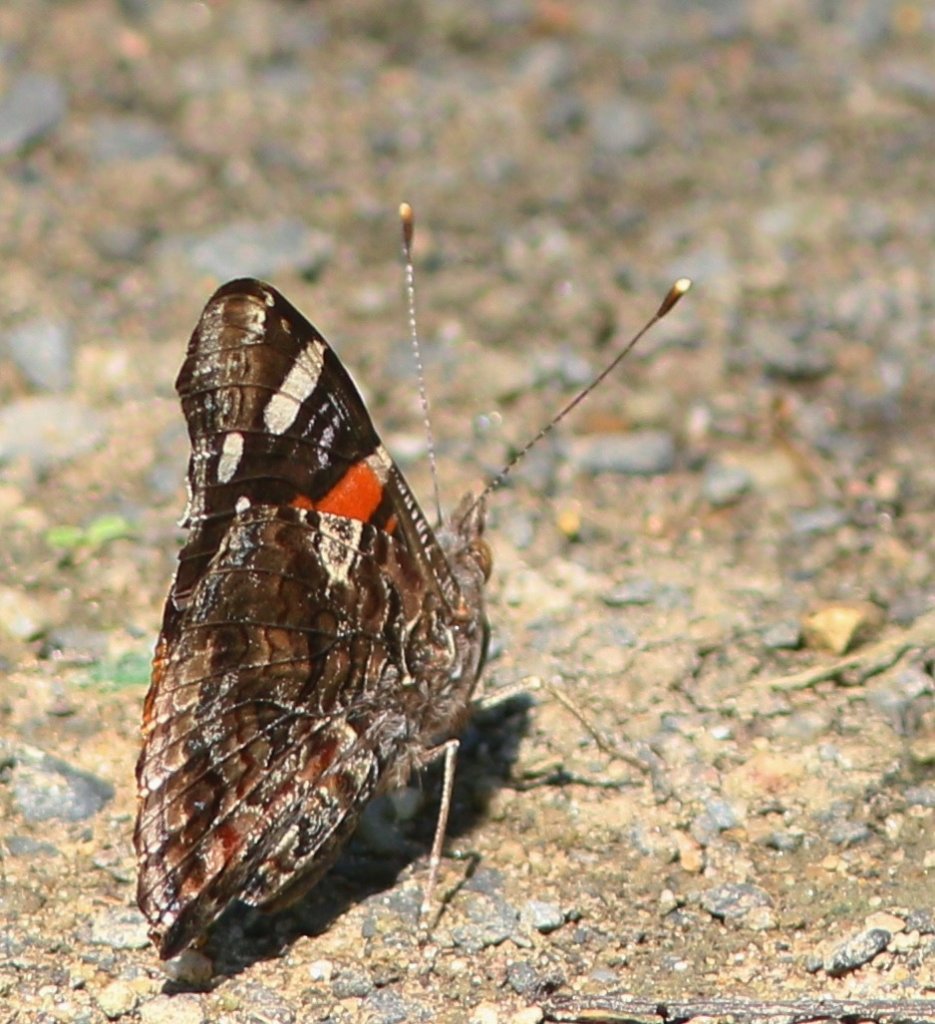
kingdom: Animalia
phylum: Arthropoda
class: Insecta
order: Lepidoptera
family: Nymphalidae
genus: Vanessa
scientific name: Vanessa atalanta
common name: Red Admiral
